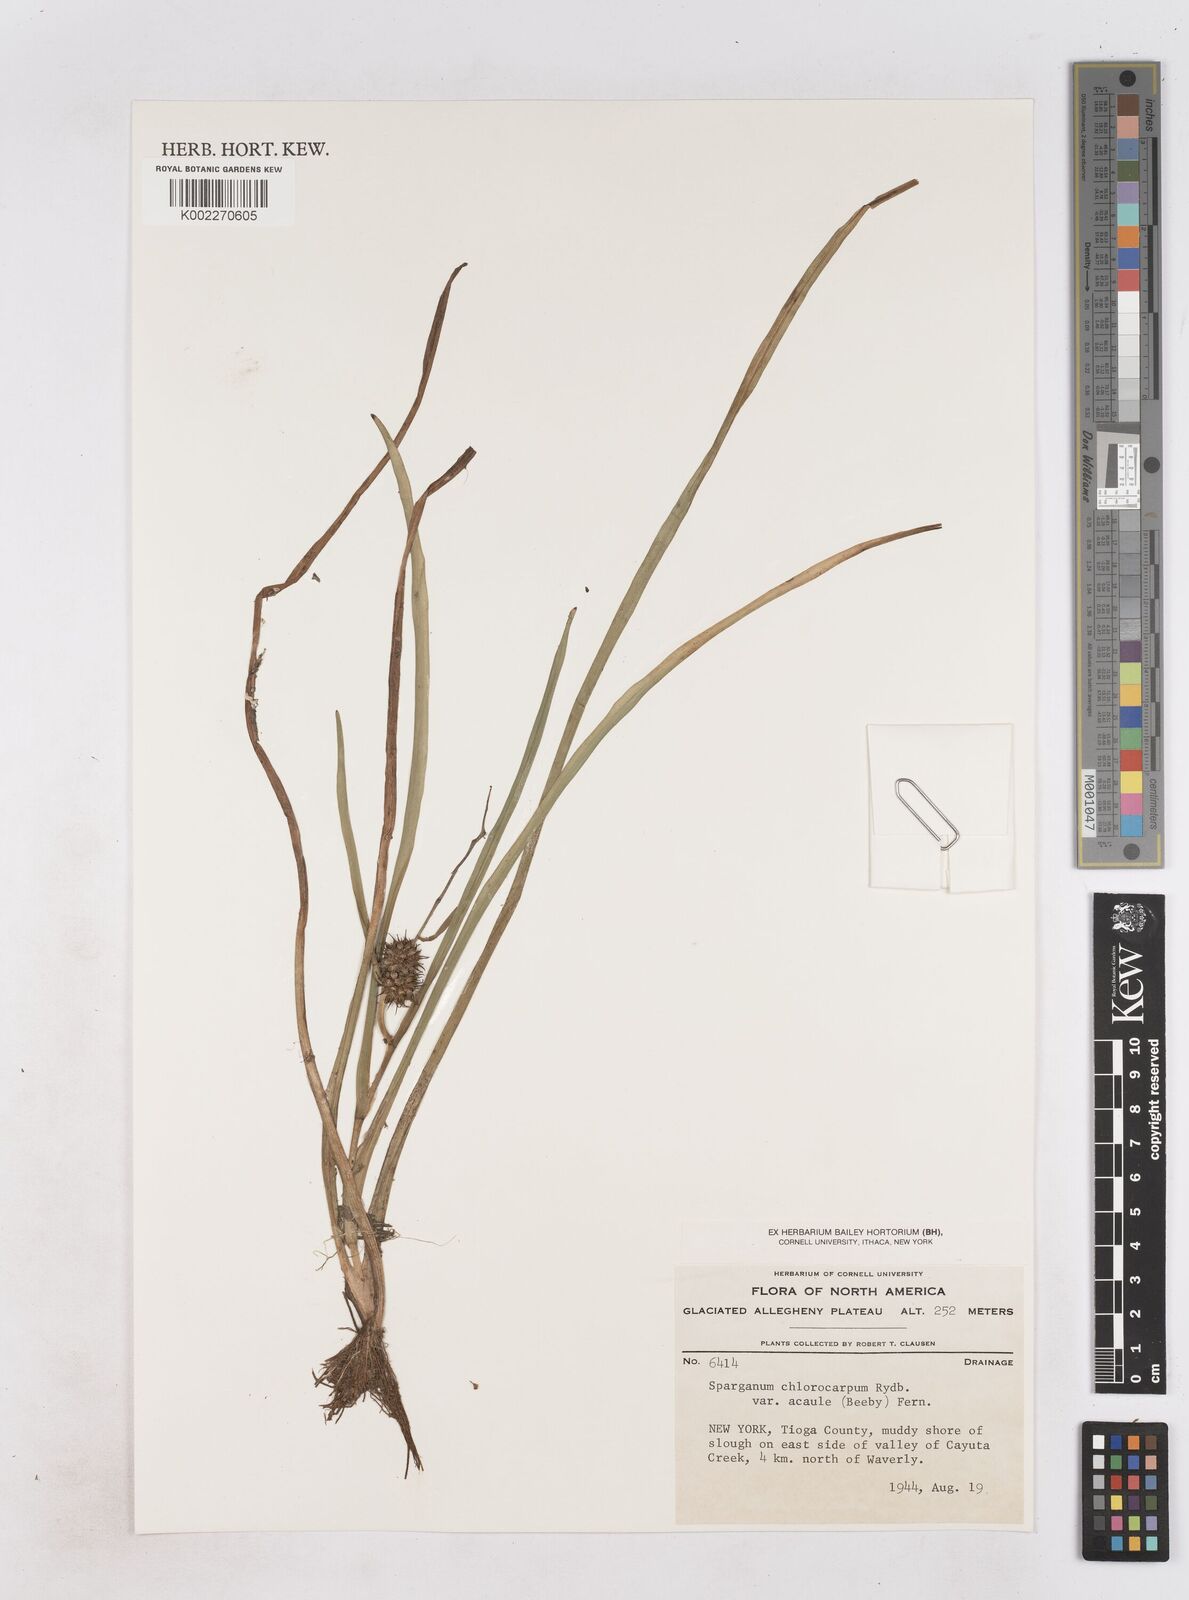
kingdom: Plantae
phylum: Tracheophyta
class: Liliopsida
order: Poales
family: Typhaceae
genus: Sparganium
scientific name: Sparganium emersum
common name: Unbranched bur-reed
